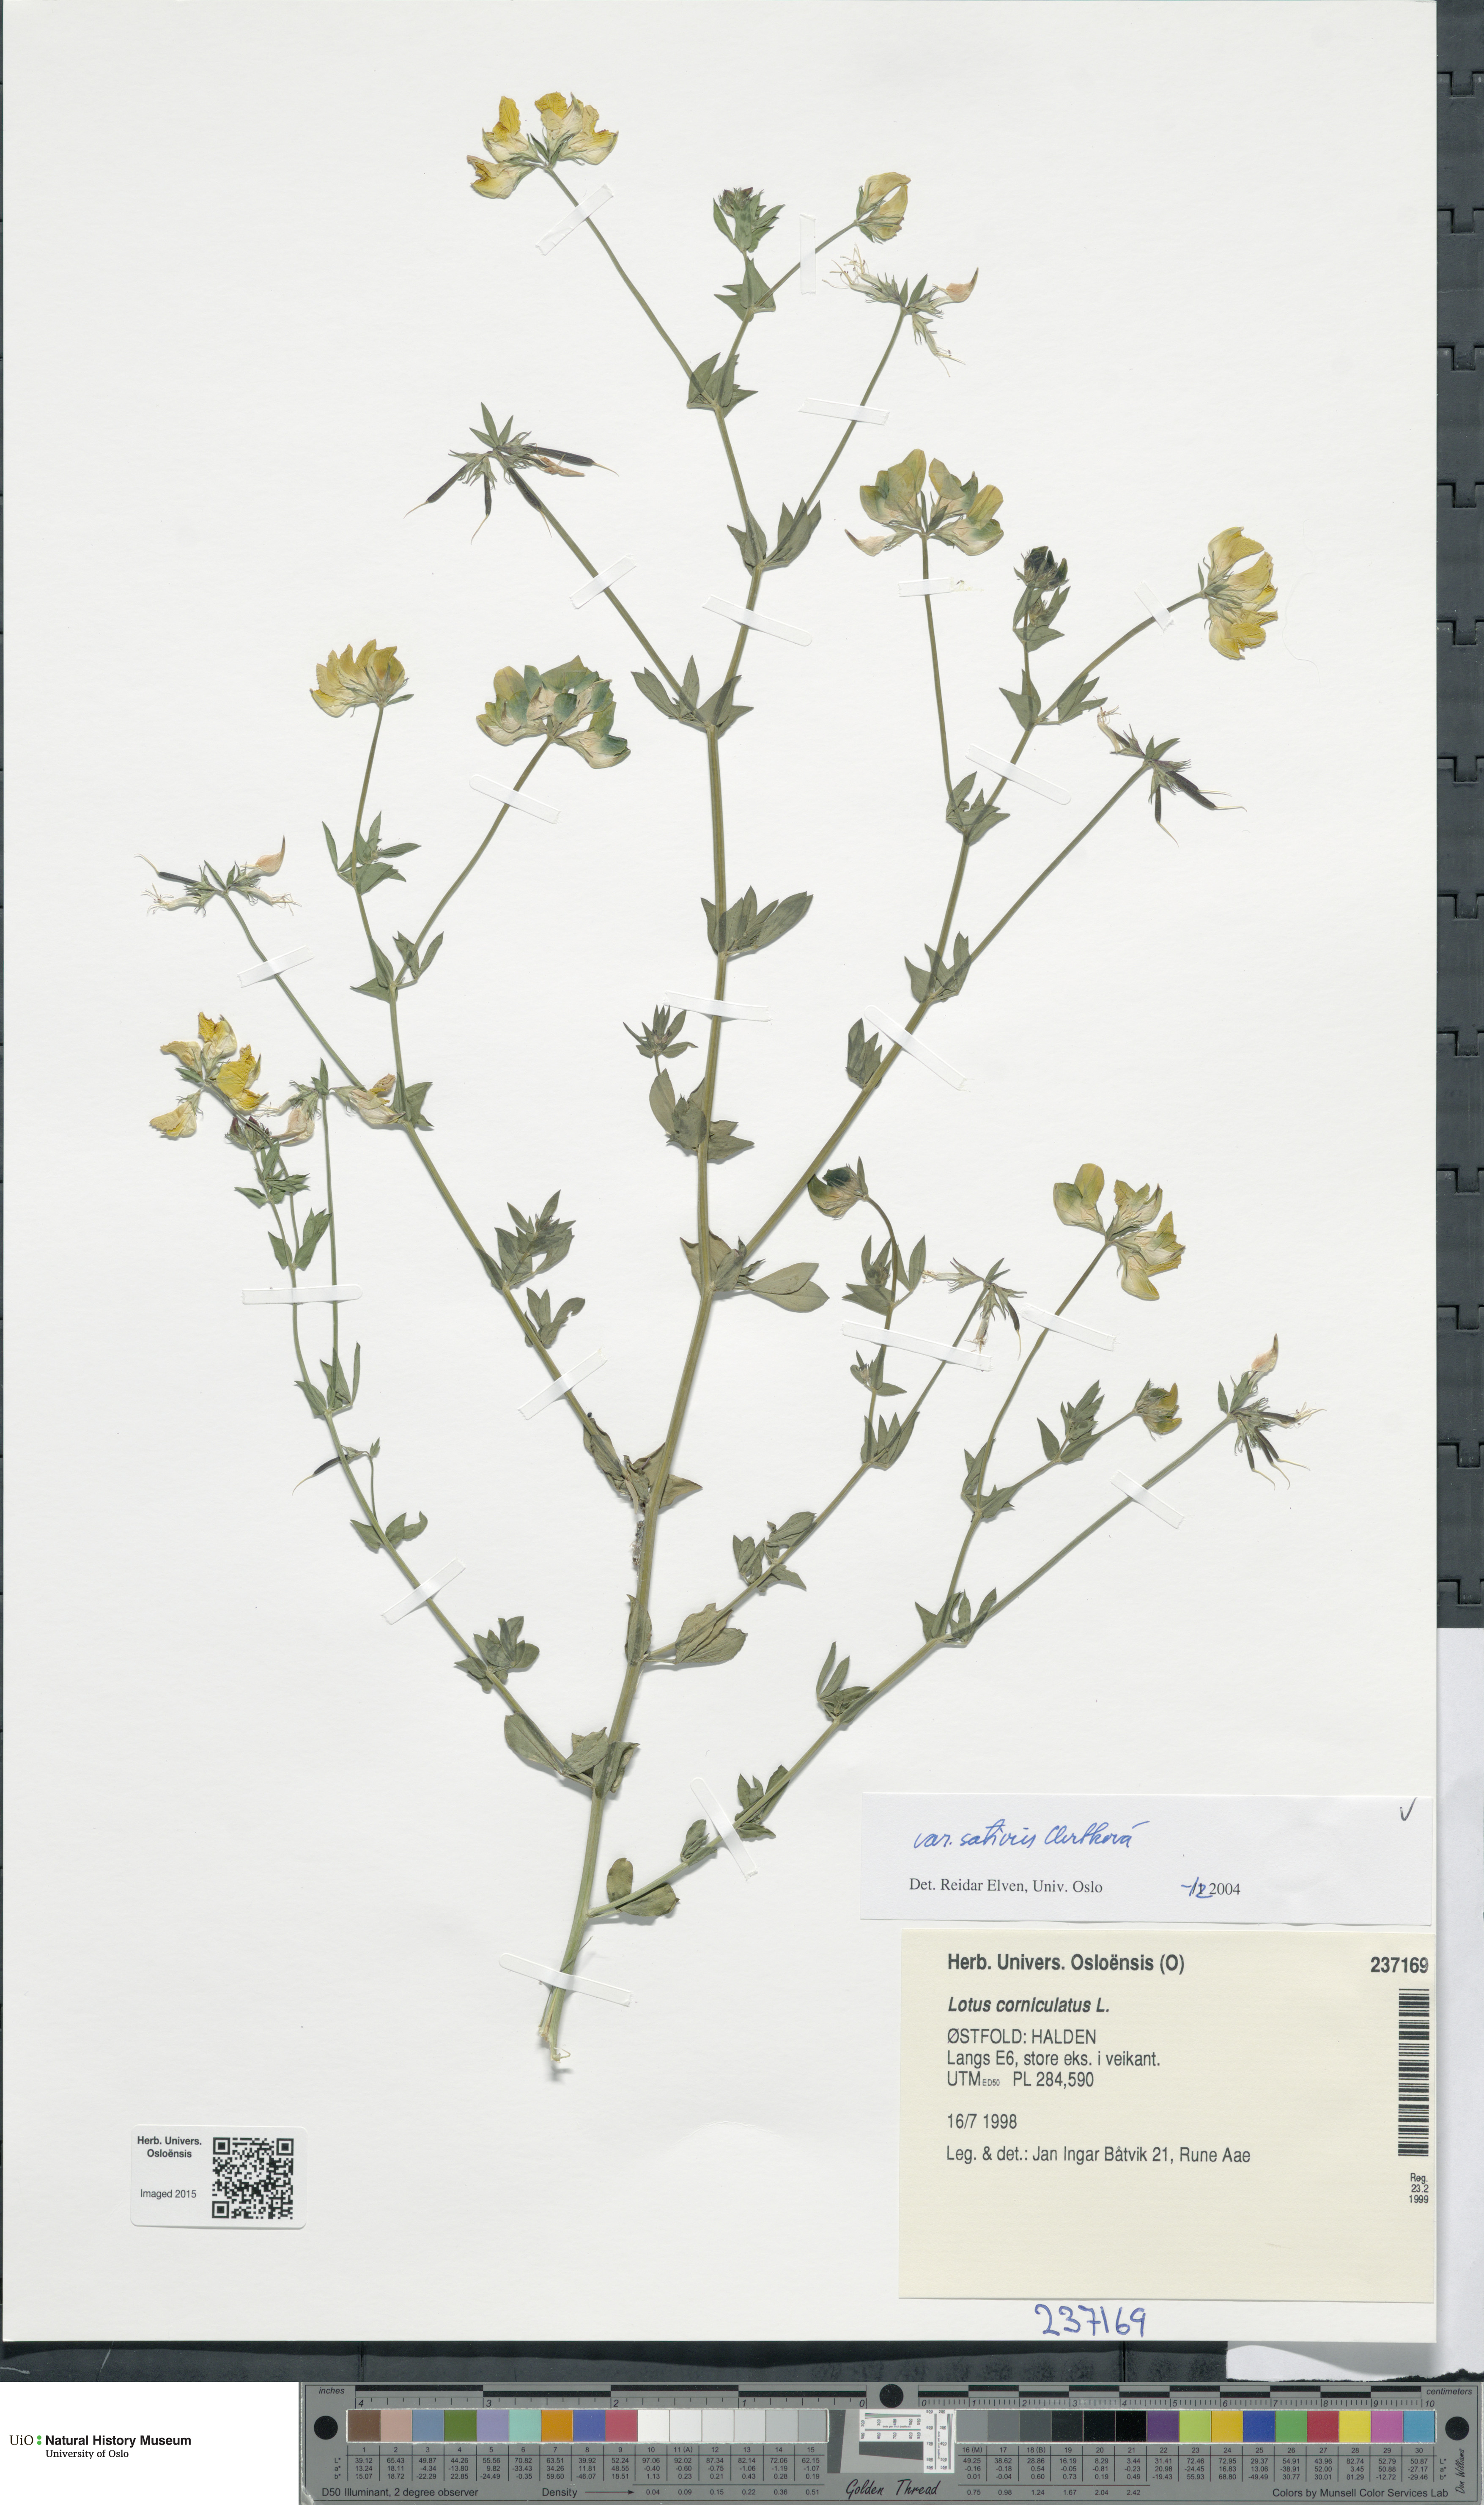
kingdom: Plantae
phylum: Tracheophyta
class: Magnoliopsida
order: Fabales
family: Fabaceae
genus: Lotus
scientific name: Lotus corniculatus
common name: Common bird's-foot-trefoil
